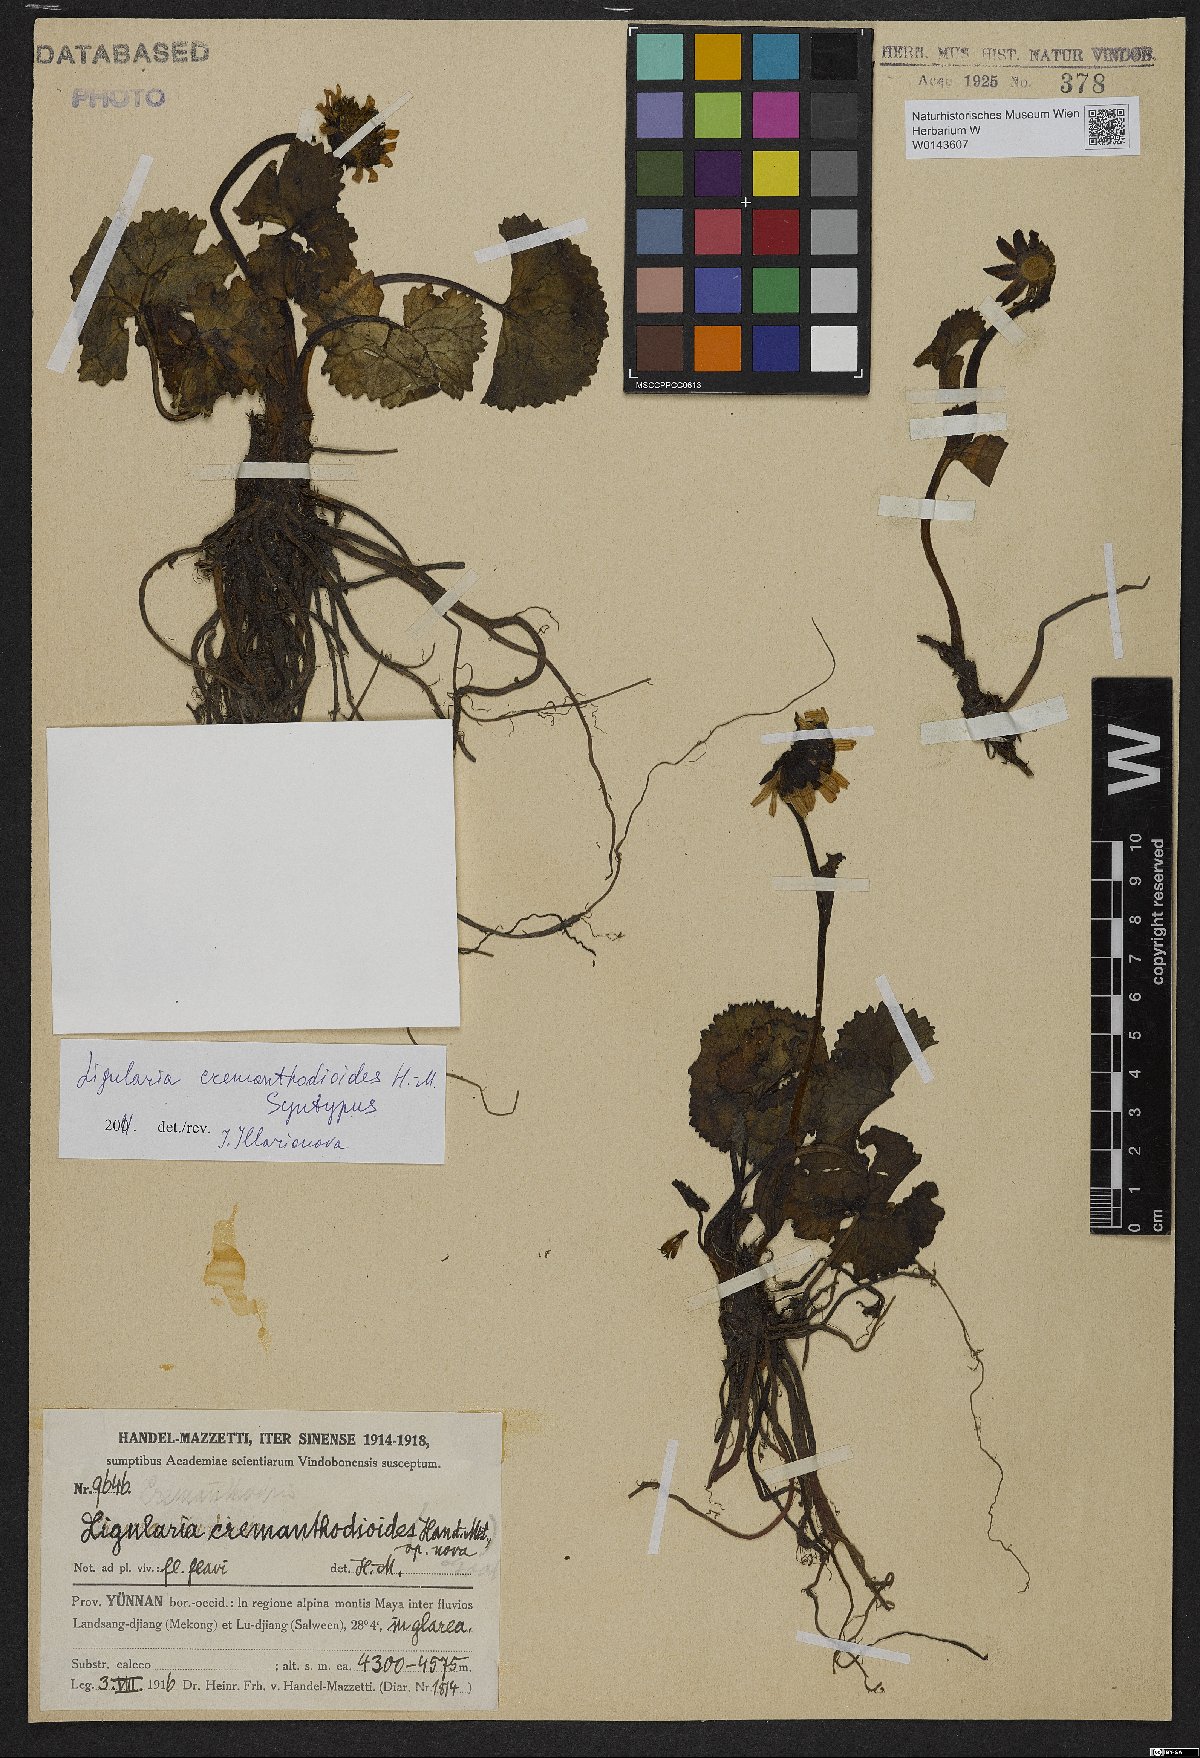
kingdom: Plantae
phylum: Tracheophyta
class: Magnoliopsida
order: Asterales
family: Asteraceae
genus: Ligularia
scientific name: Ligularia cremanthodioides
